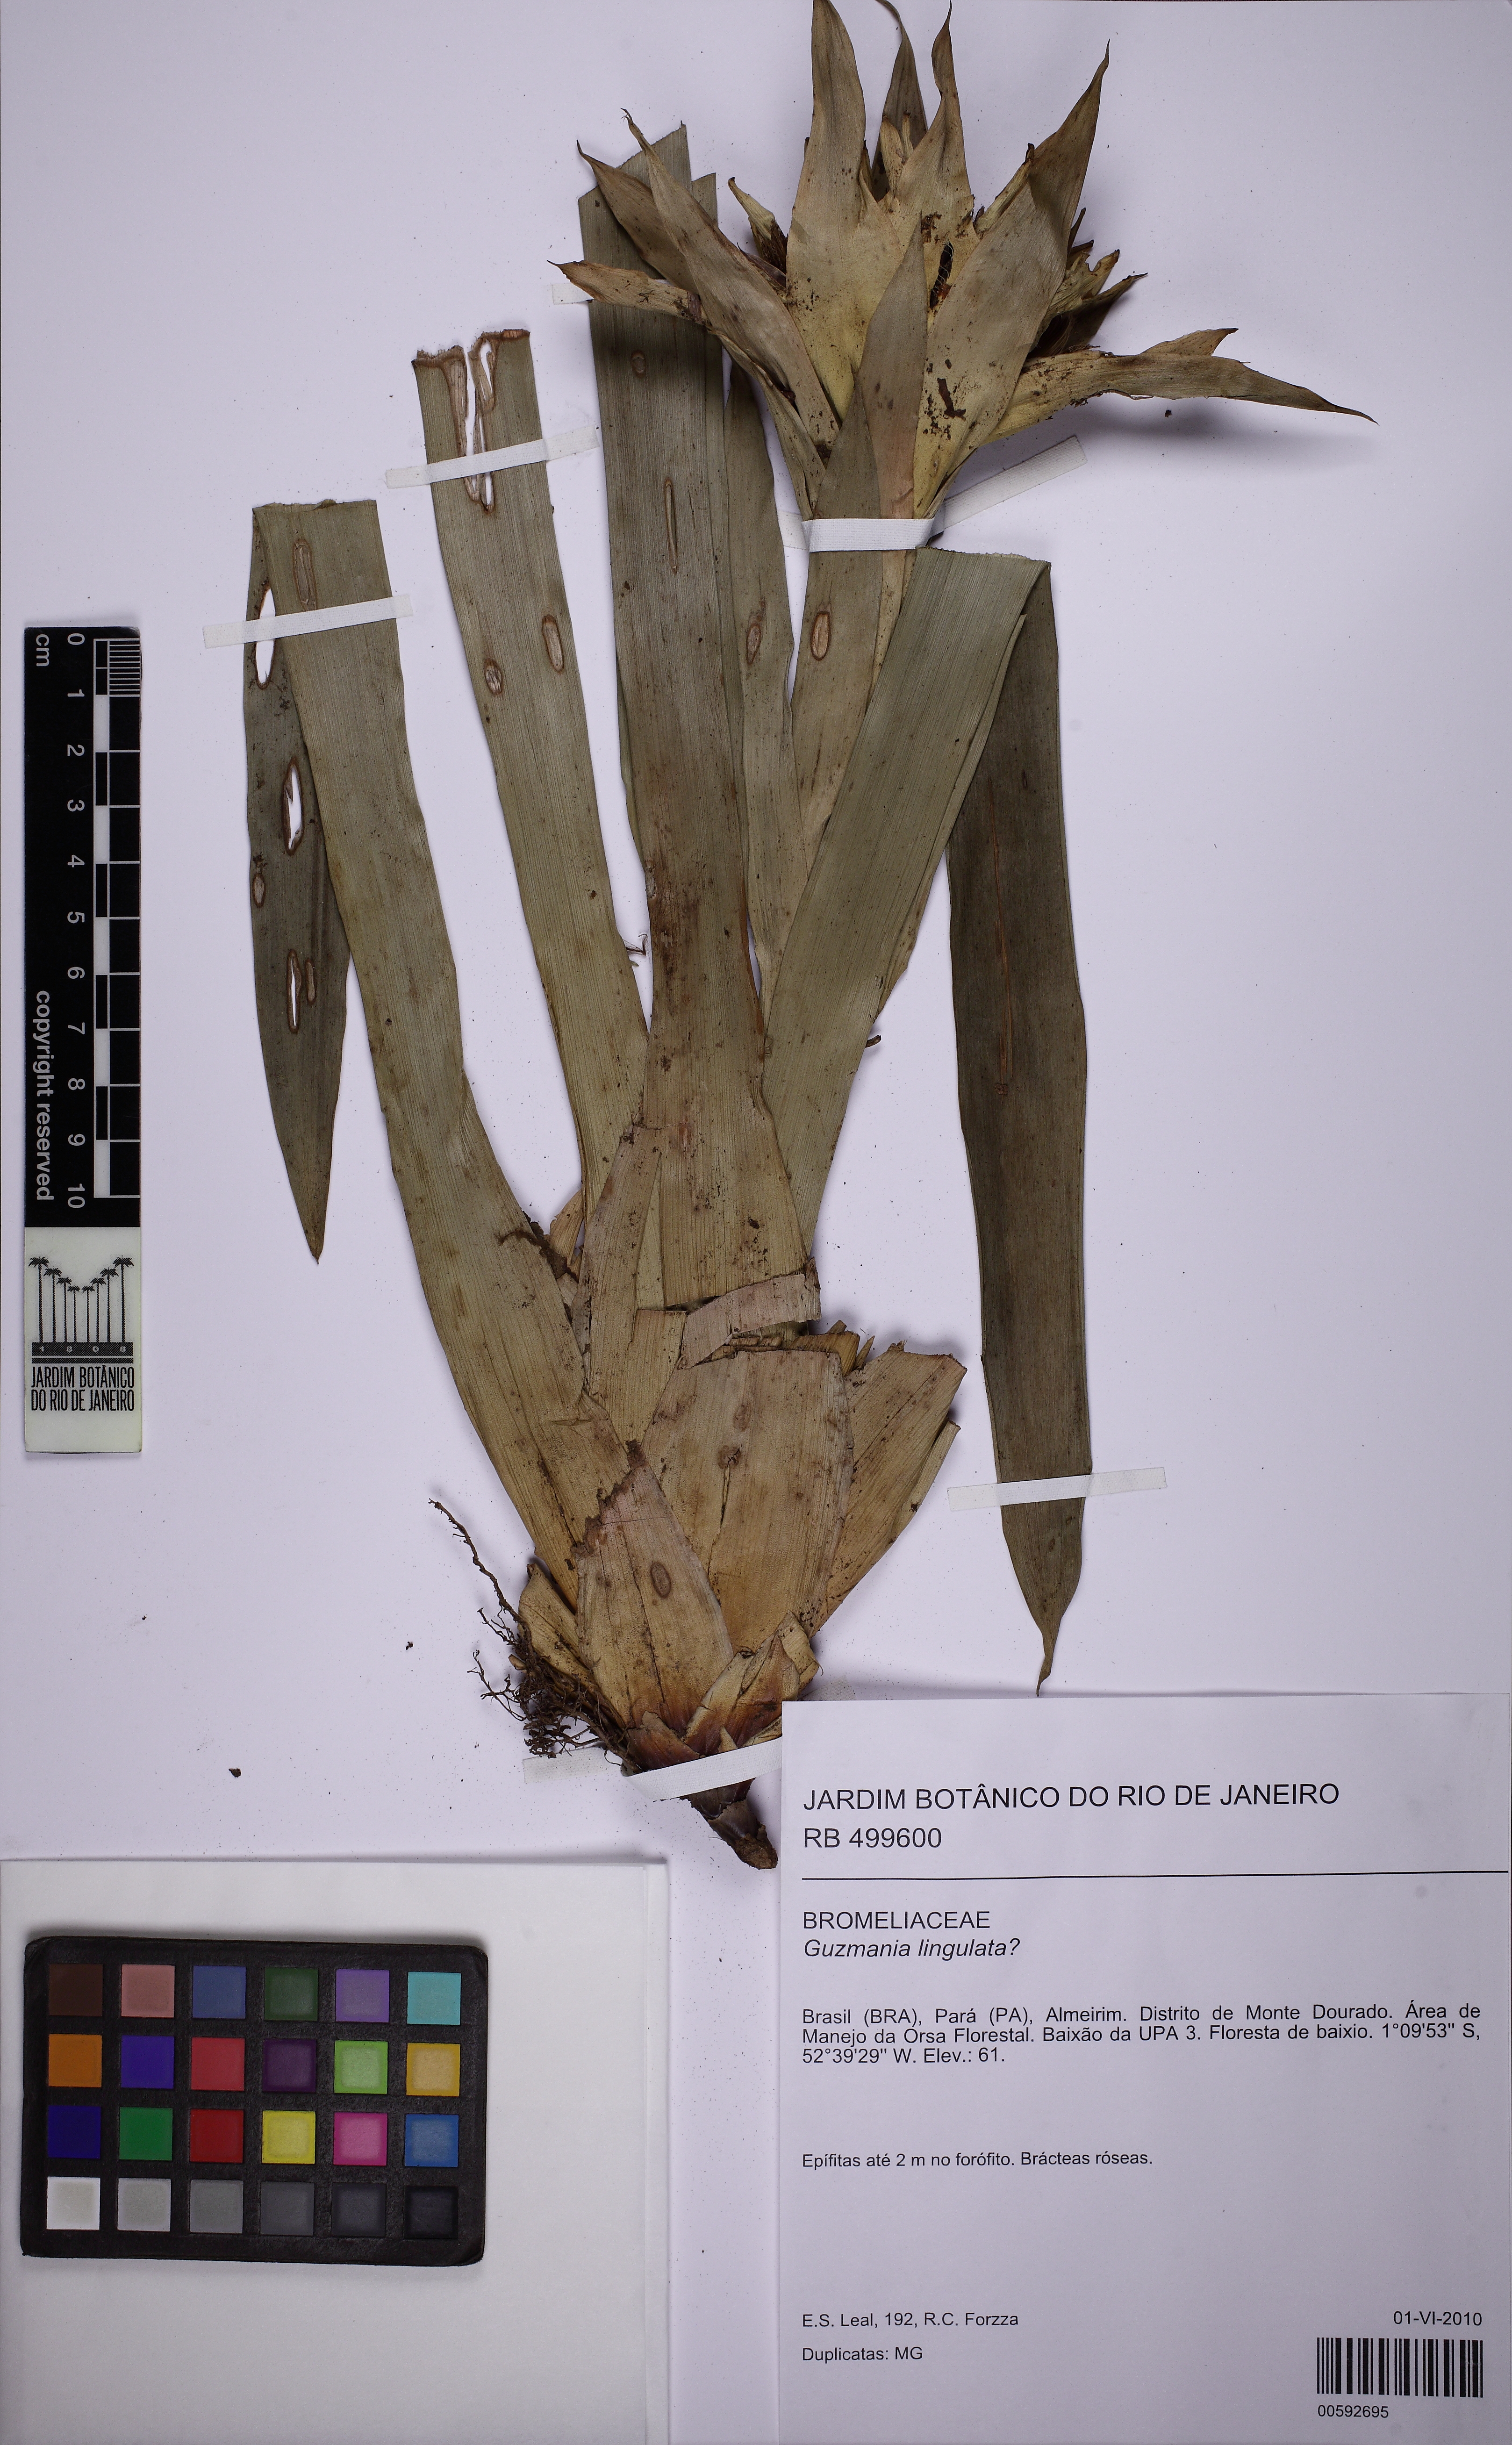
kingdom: Plantae
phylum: Tracheophyta
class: Liliopsida
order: Poales
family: Bromeliaceae
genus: Guzmania
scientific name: Guzmania lingulata
